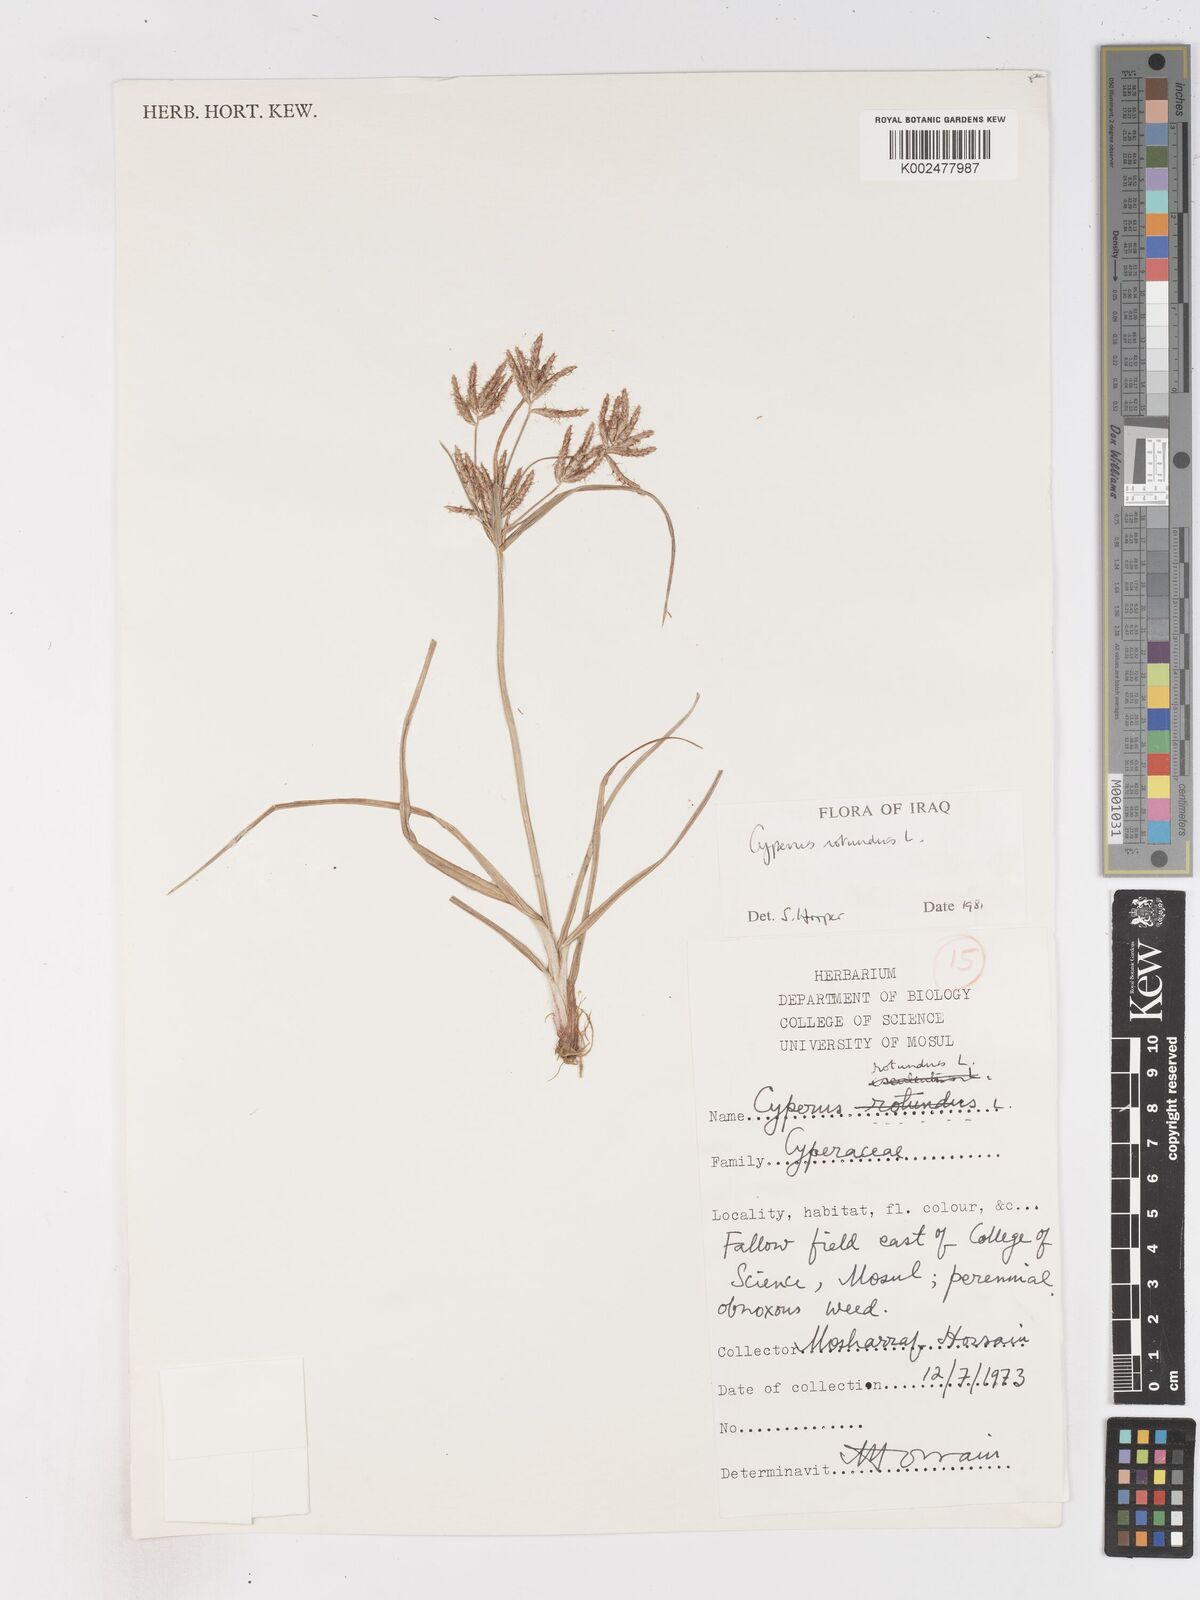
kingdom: Plantae
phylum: Tracheophyta
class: Liliopsida
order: Poales
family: Cyperaceae
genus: Cyperus
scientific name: Cyperus rotundus
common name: Nutgrass
